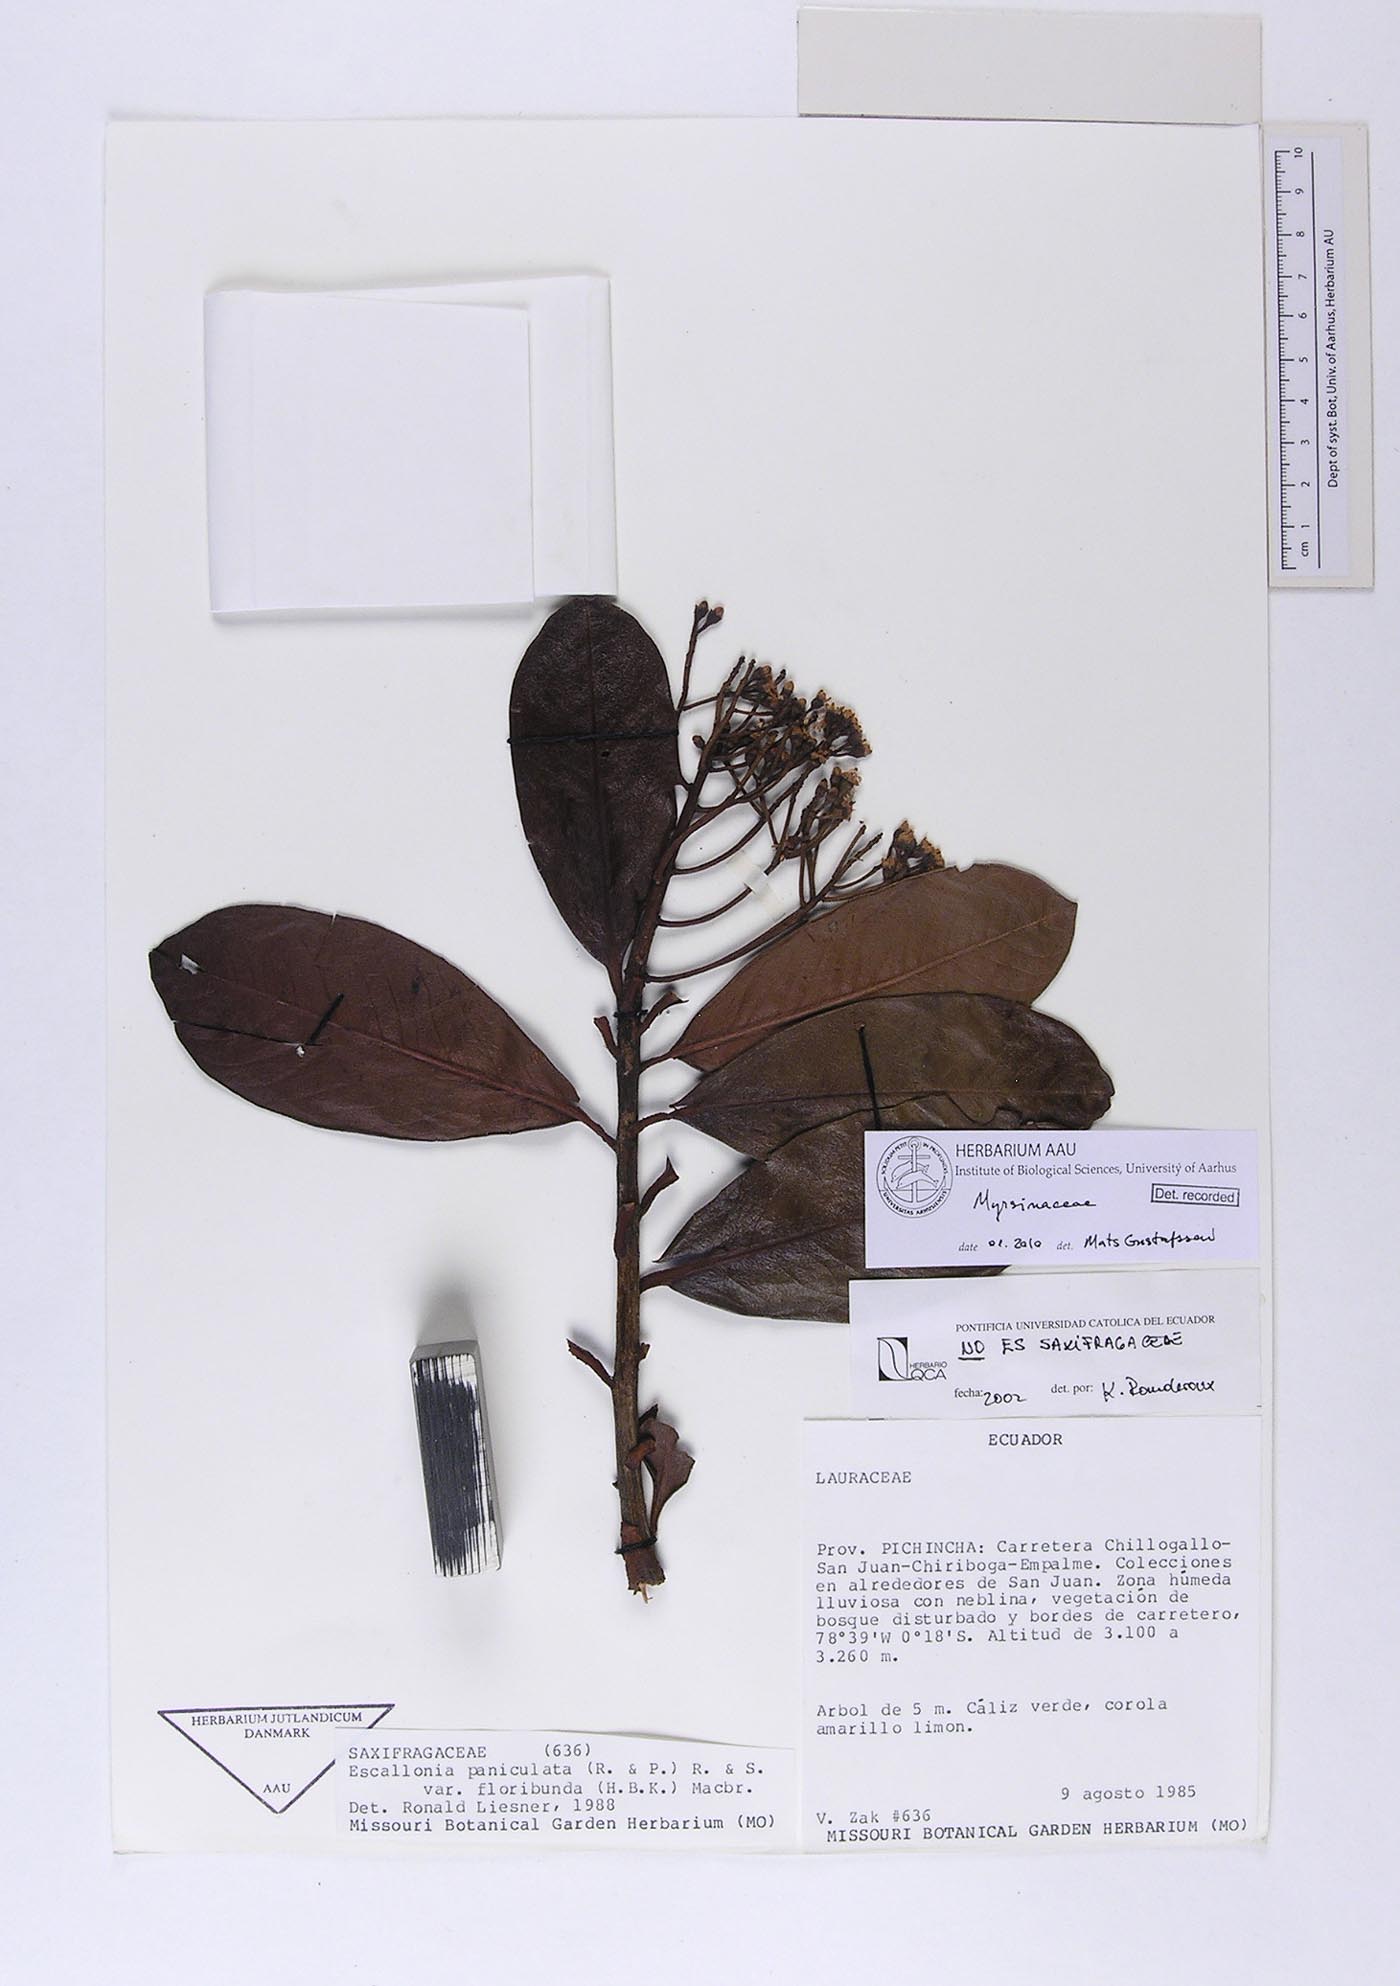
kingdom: Plantae
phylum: Tracheophyta
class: Magnoliopsida
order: Ericales
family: Primulaceae
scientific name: Primulaceae
